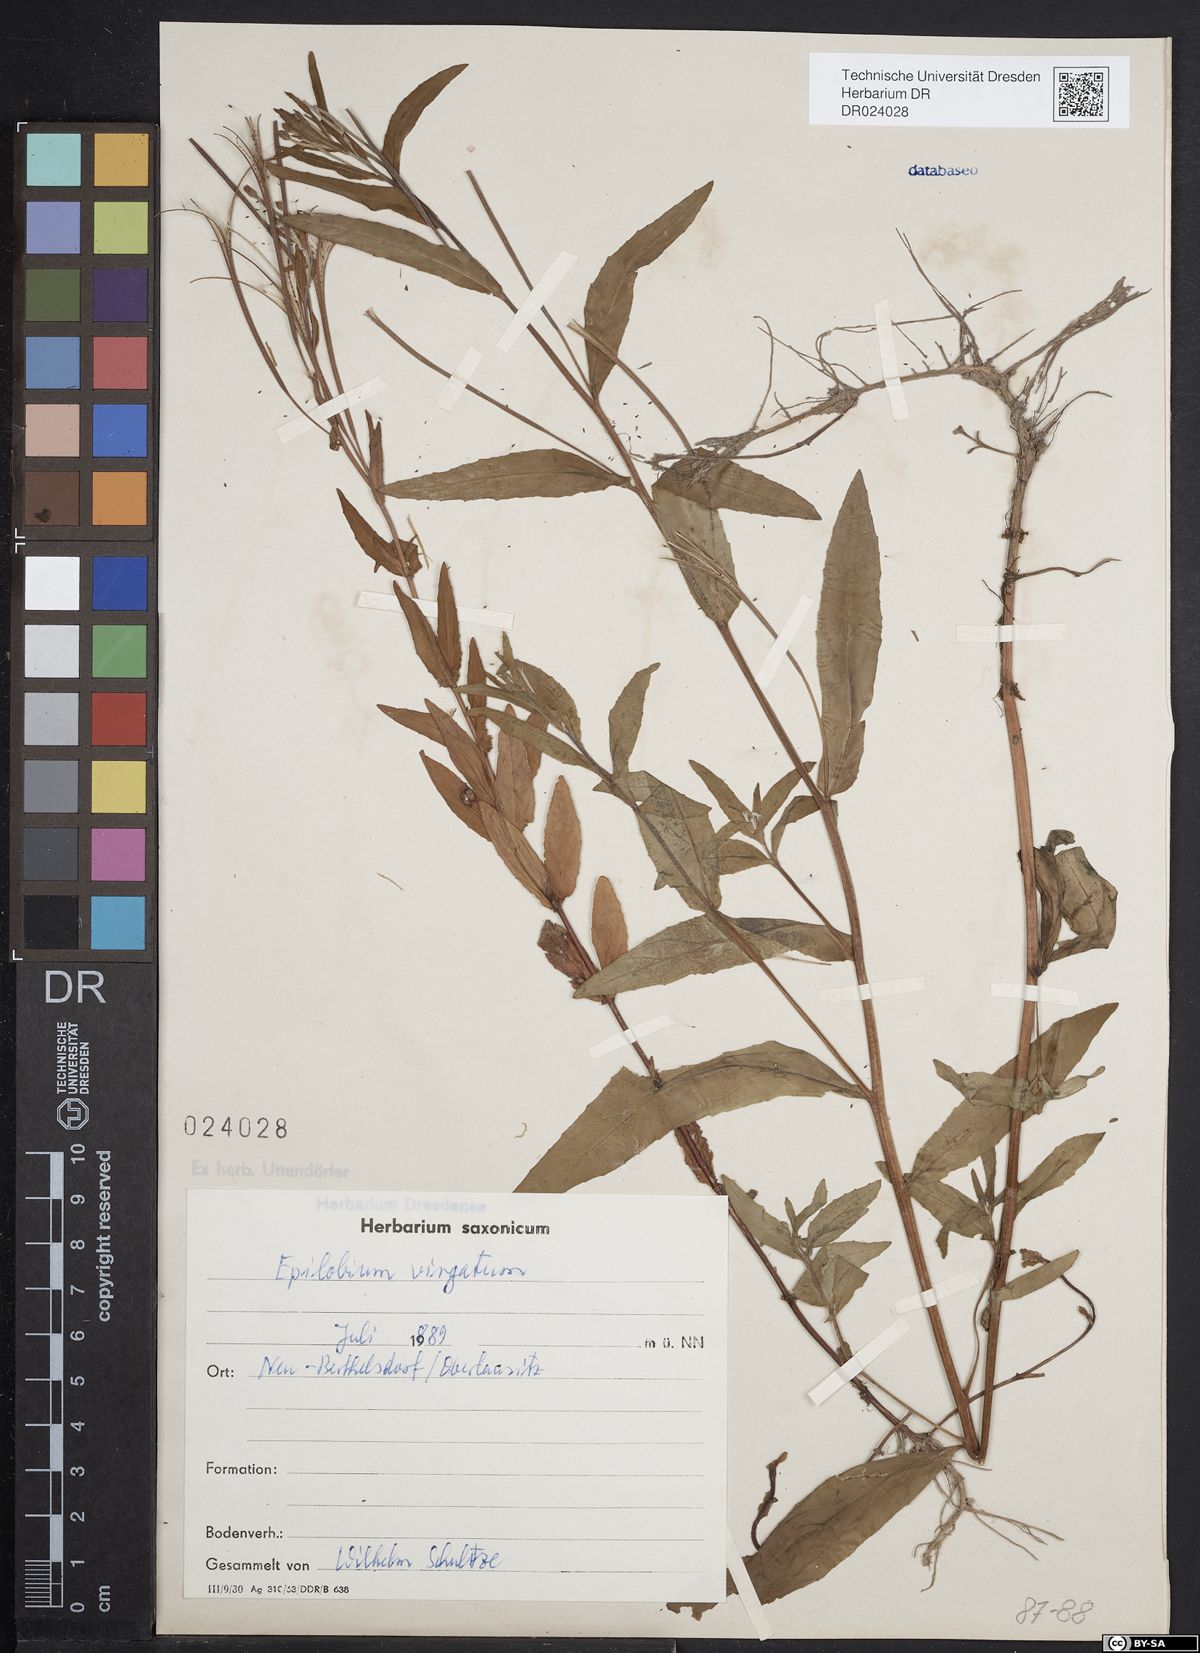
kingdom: Plantae
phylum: Tracheophyta
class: Magnoliopsida
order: Myrtales
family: Onagraceae
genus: Epilobium
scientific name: Epilobium obscurum
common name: Short-fruited willowherb
